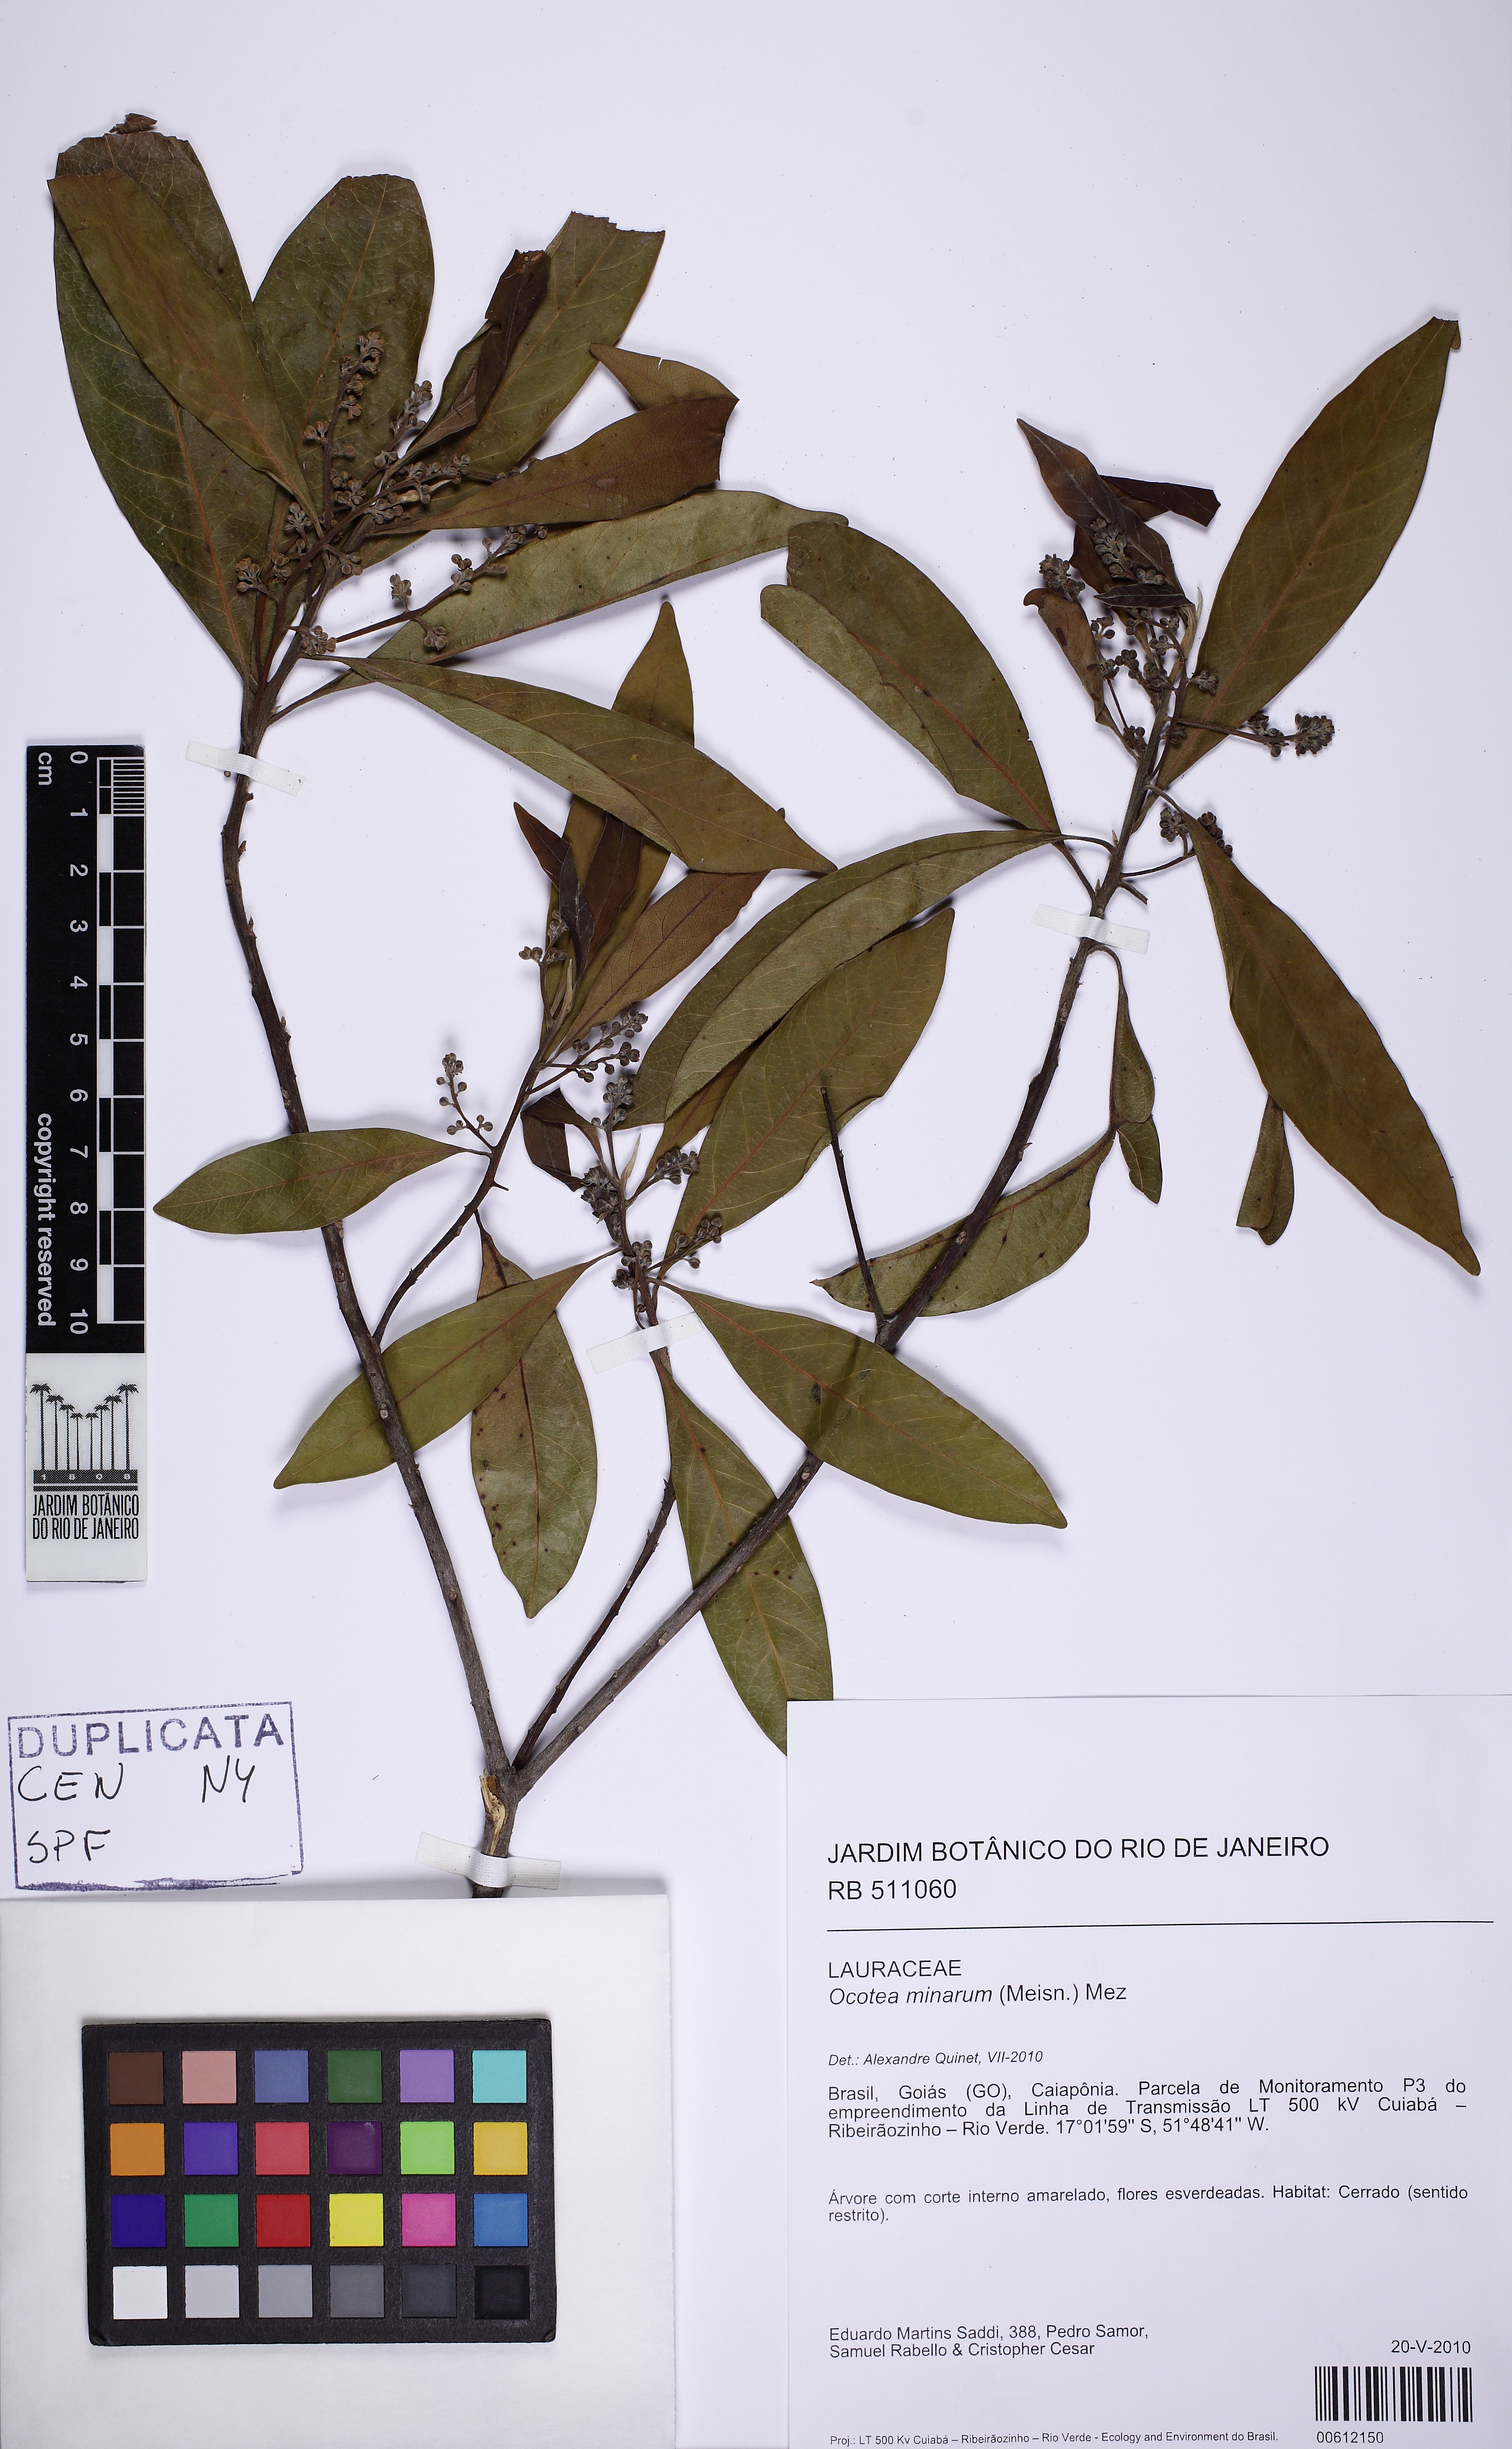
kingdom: Plantae
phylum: Tracheophyta
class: Magnoliopsida
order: Laurales
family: Lauraceae
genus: Ocotea
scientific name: Ocotea minarum
